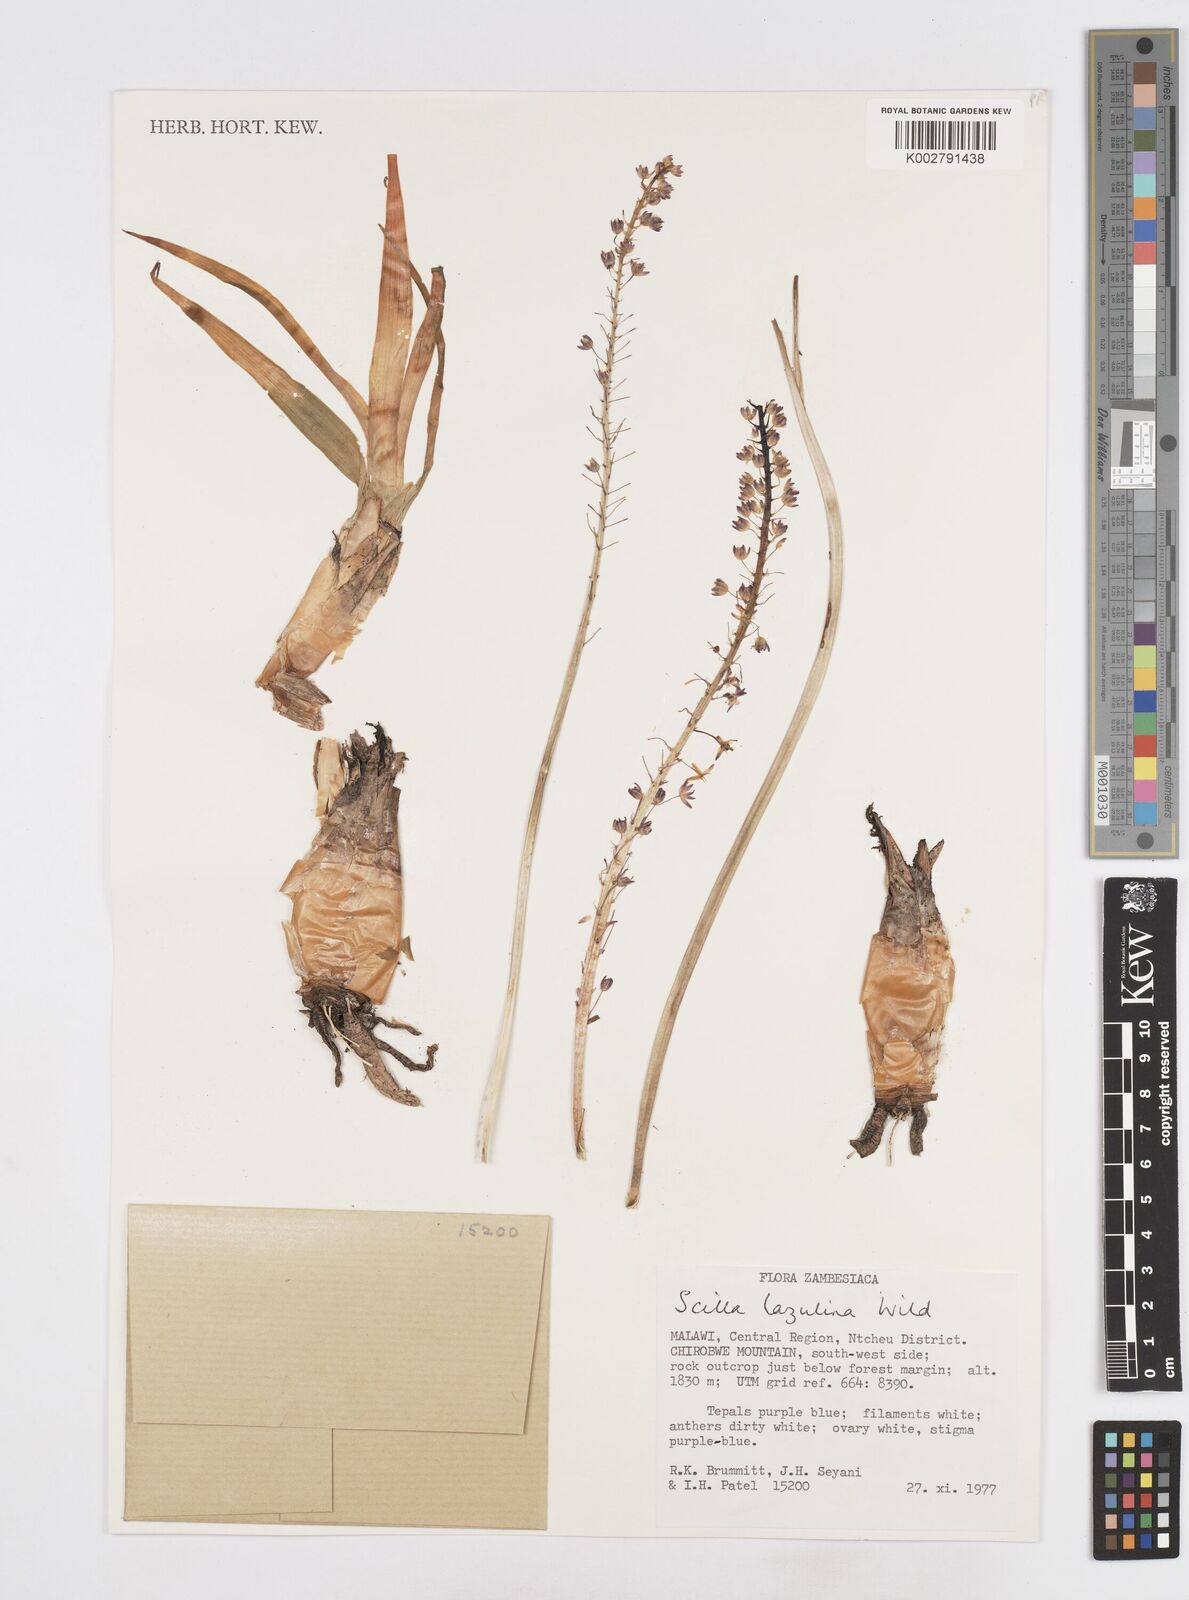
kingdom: Plantae
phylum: Tracheophyta
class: Liliopsida
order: Asparagales
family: Asparagaceae
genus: Merwilla
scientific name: Merwilla plumbea
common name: Blue-squill
